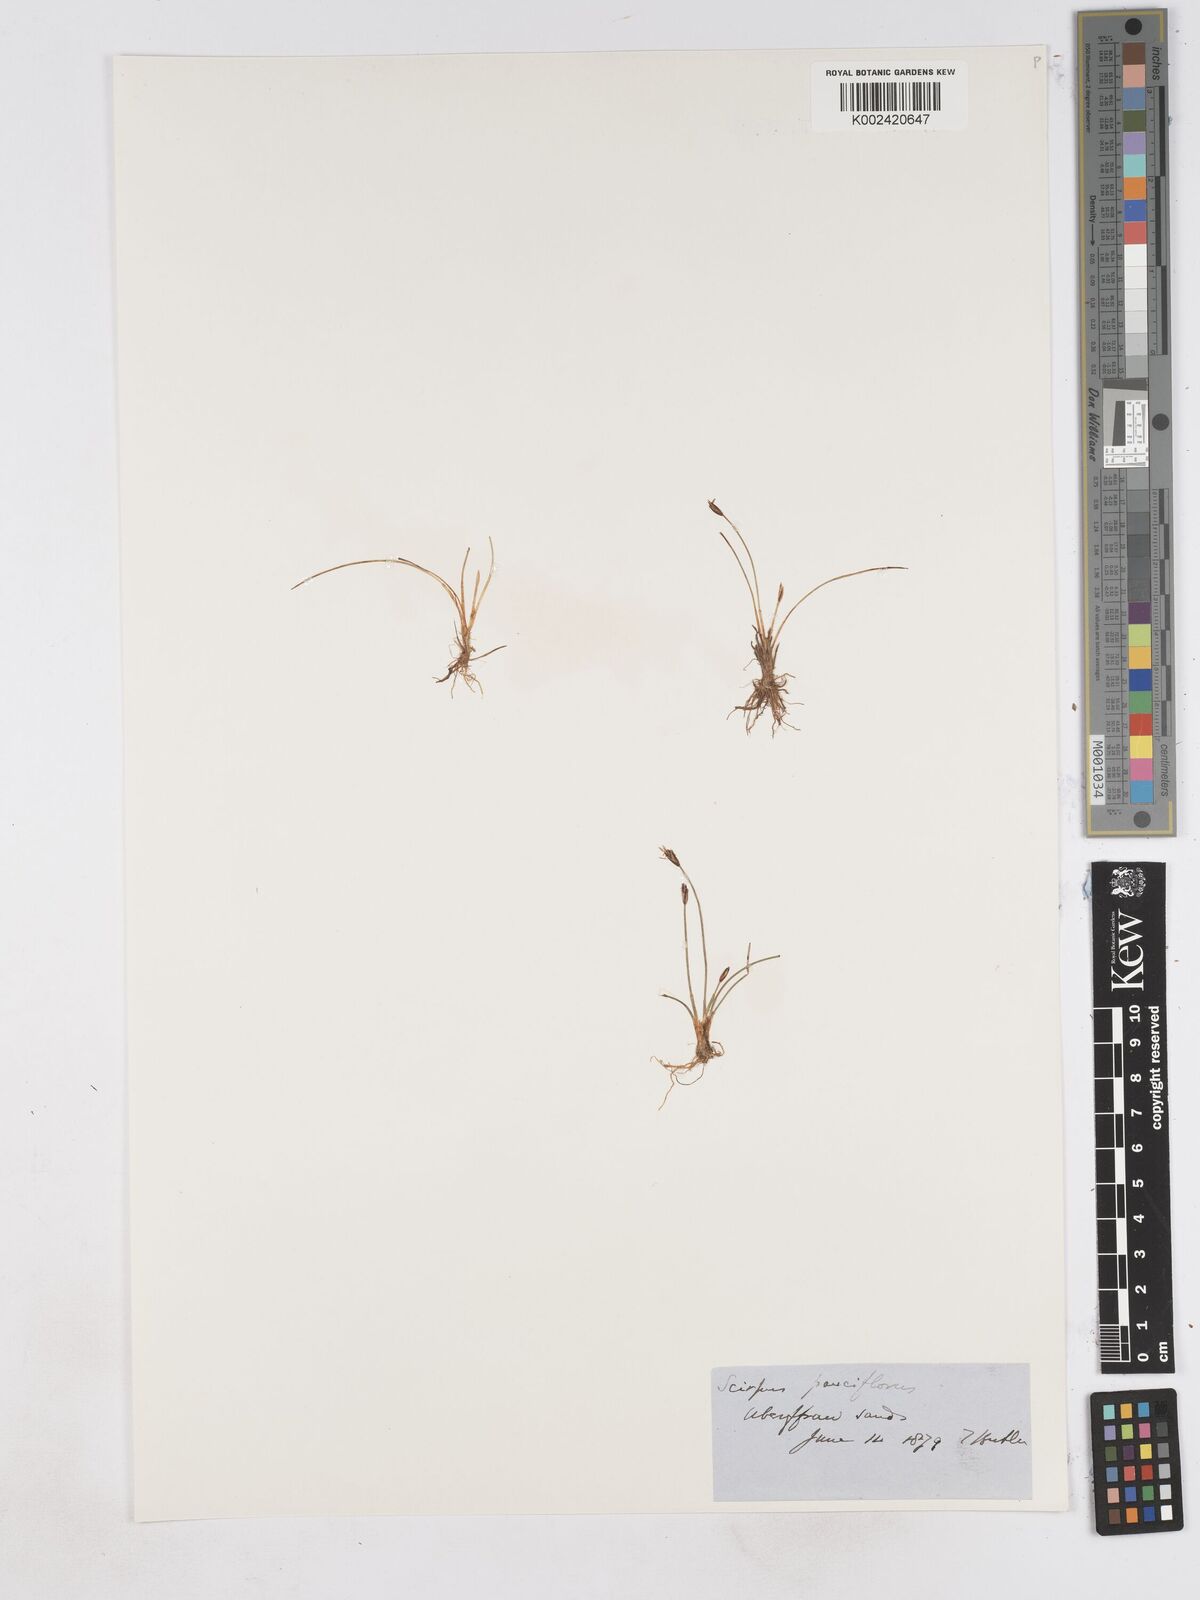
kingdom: Plantae
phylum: Tracheophyta
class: Liliopsida
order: Poales
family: Cyperaceae
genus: Eleocharis
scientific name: Eleocharis quinqueflora
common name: Few-flowered spike-rush
